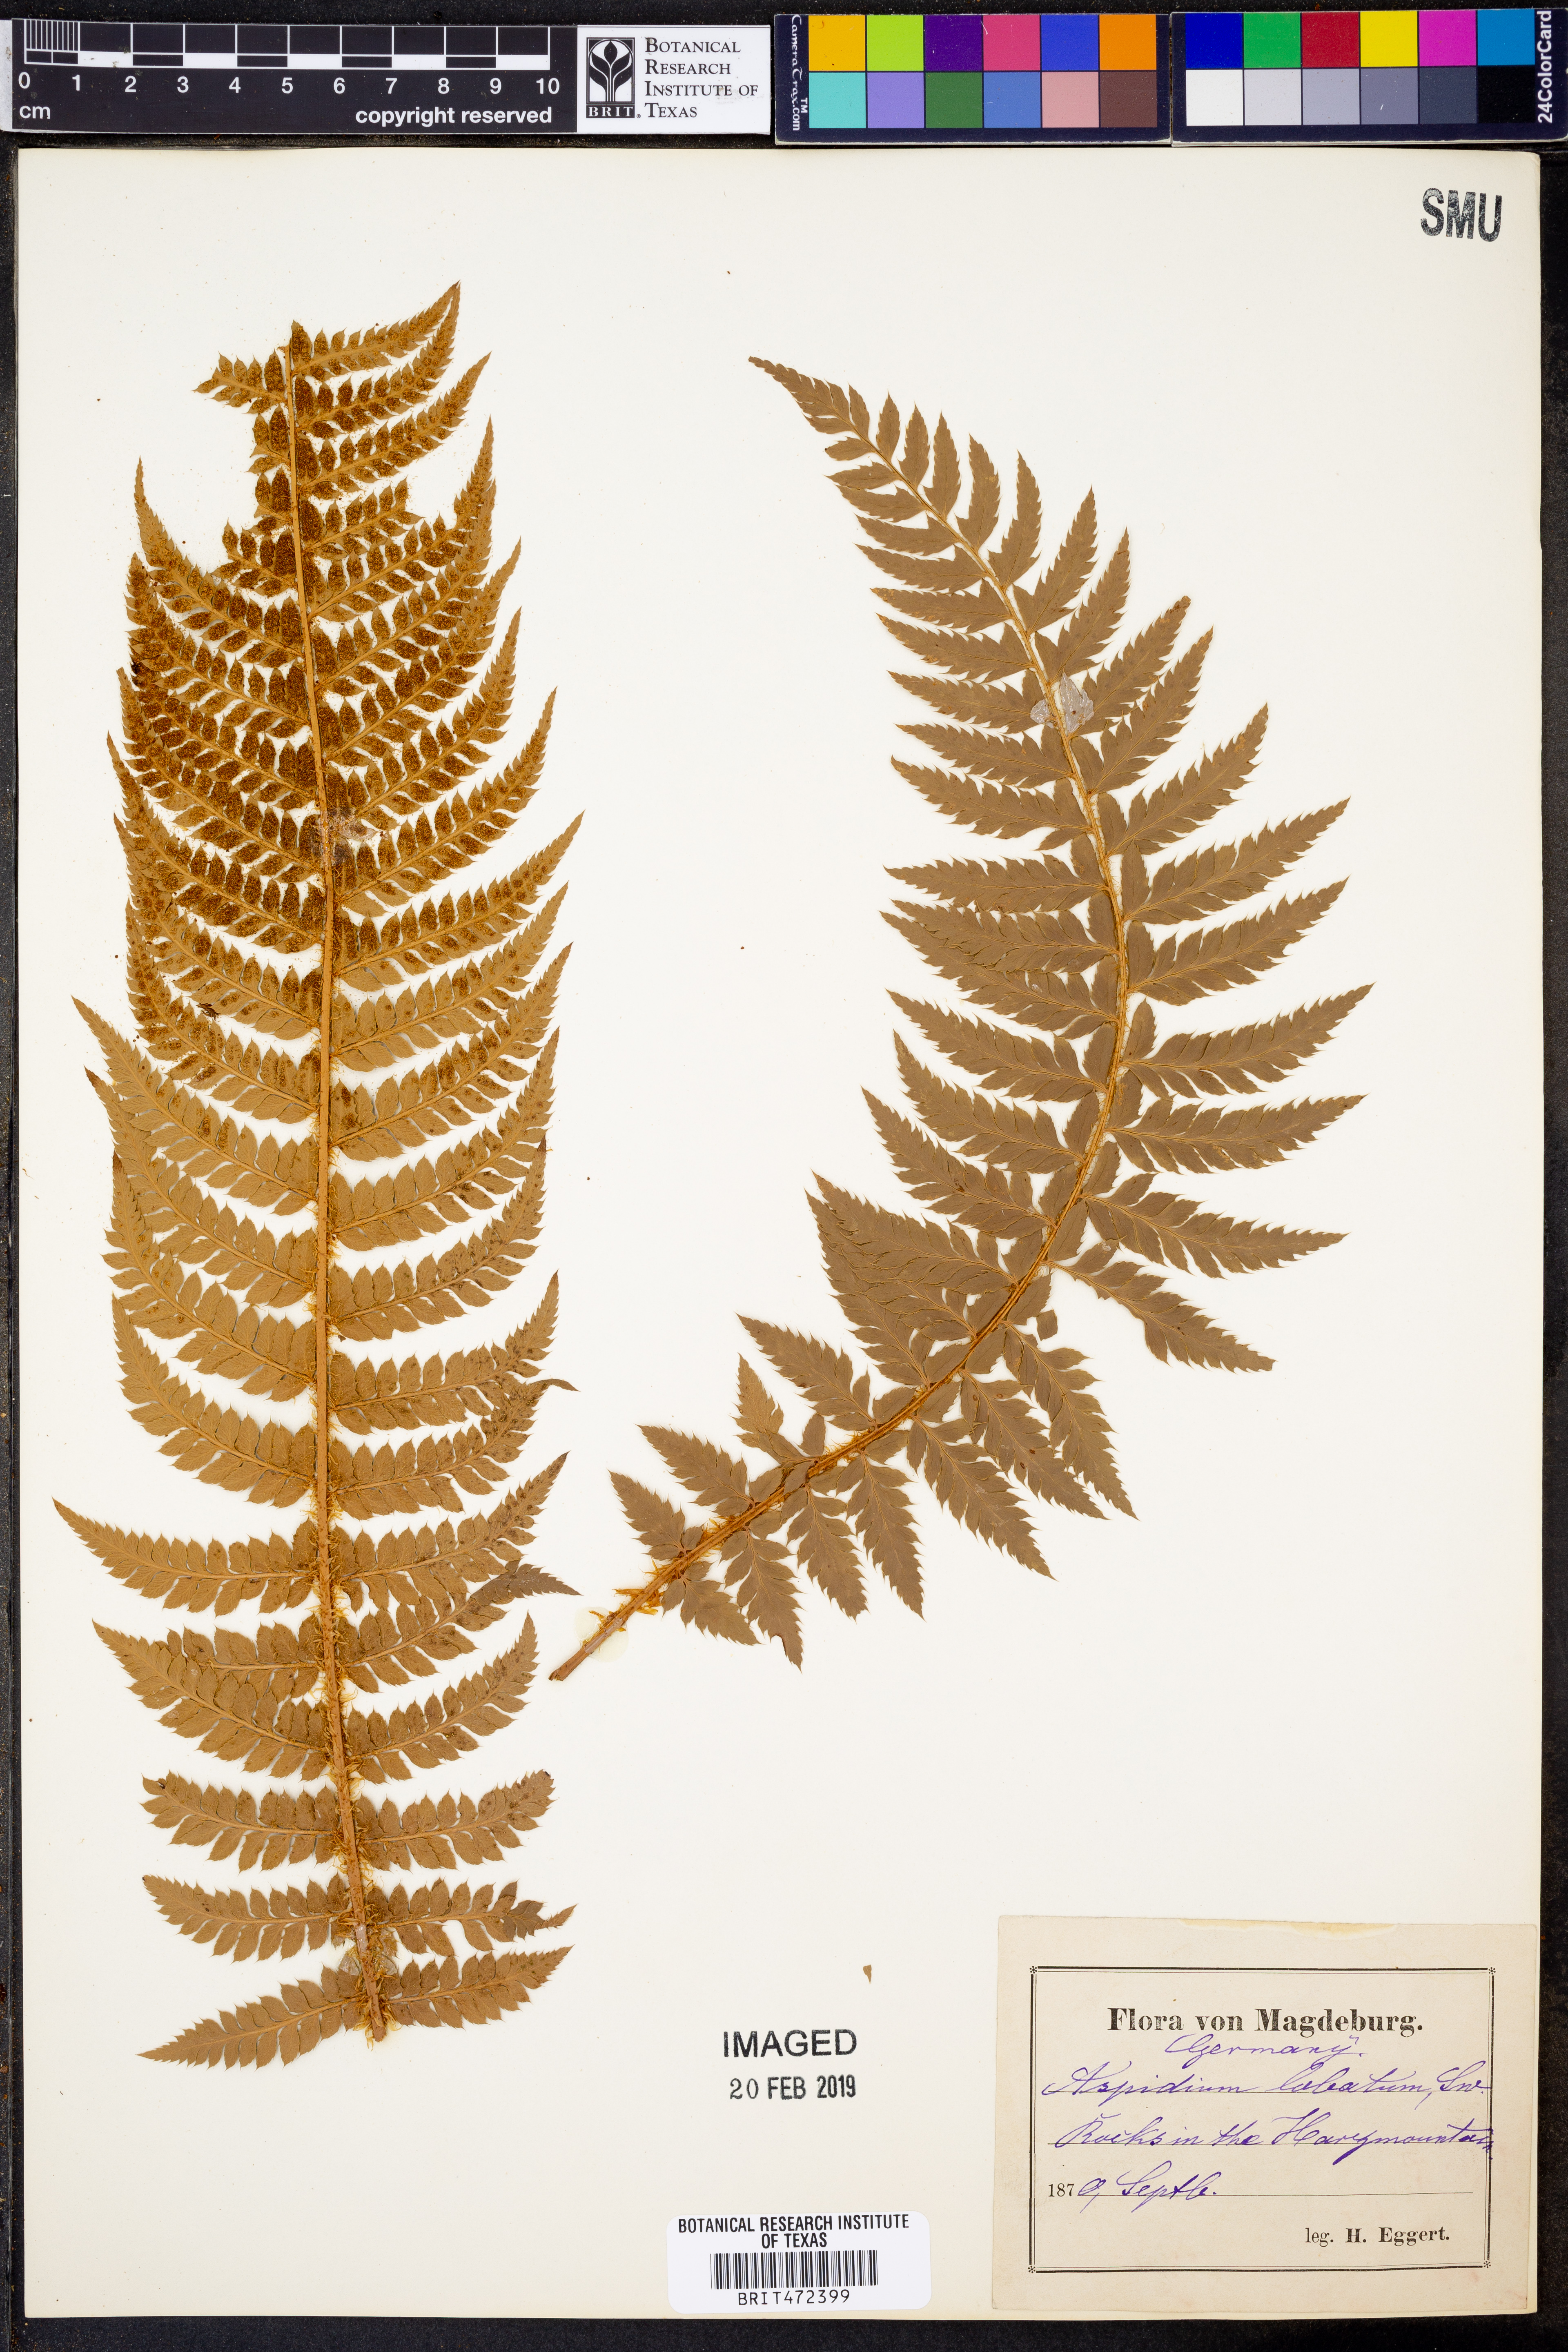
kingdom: Plantae
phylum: Tracheophyta
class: Polypodiopsida
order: Polypodiales
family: Dryopteridaceae
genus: Polystichum
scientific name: Polystichum aculeatum
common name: Hard shield-fern
